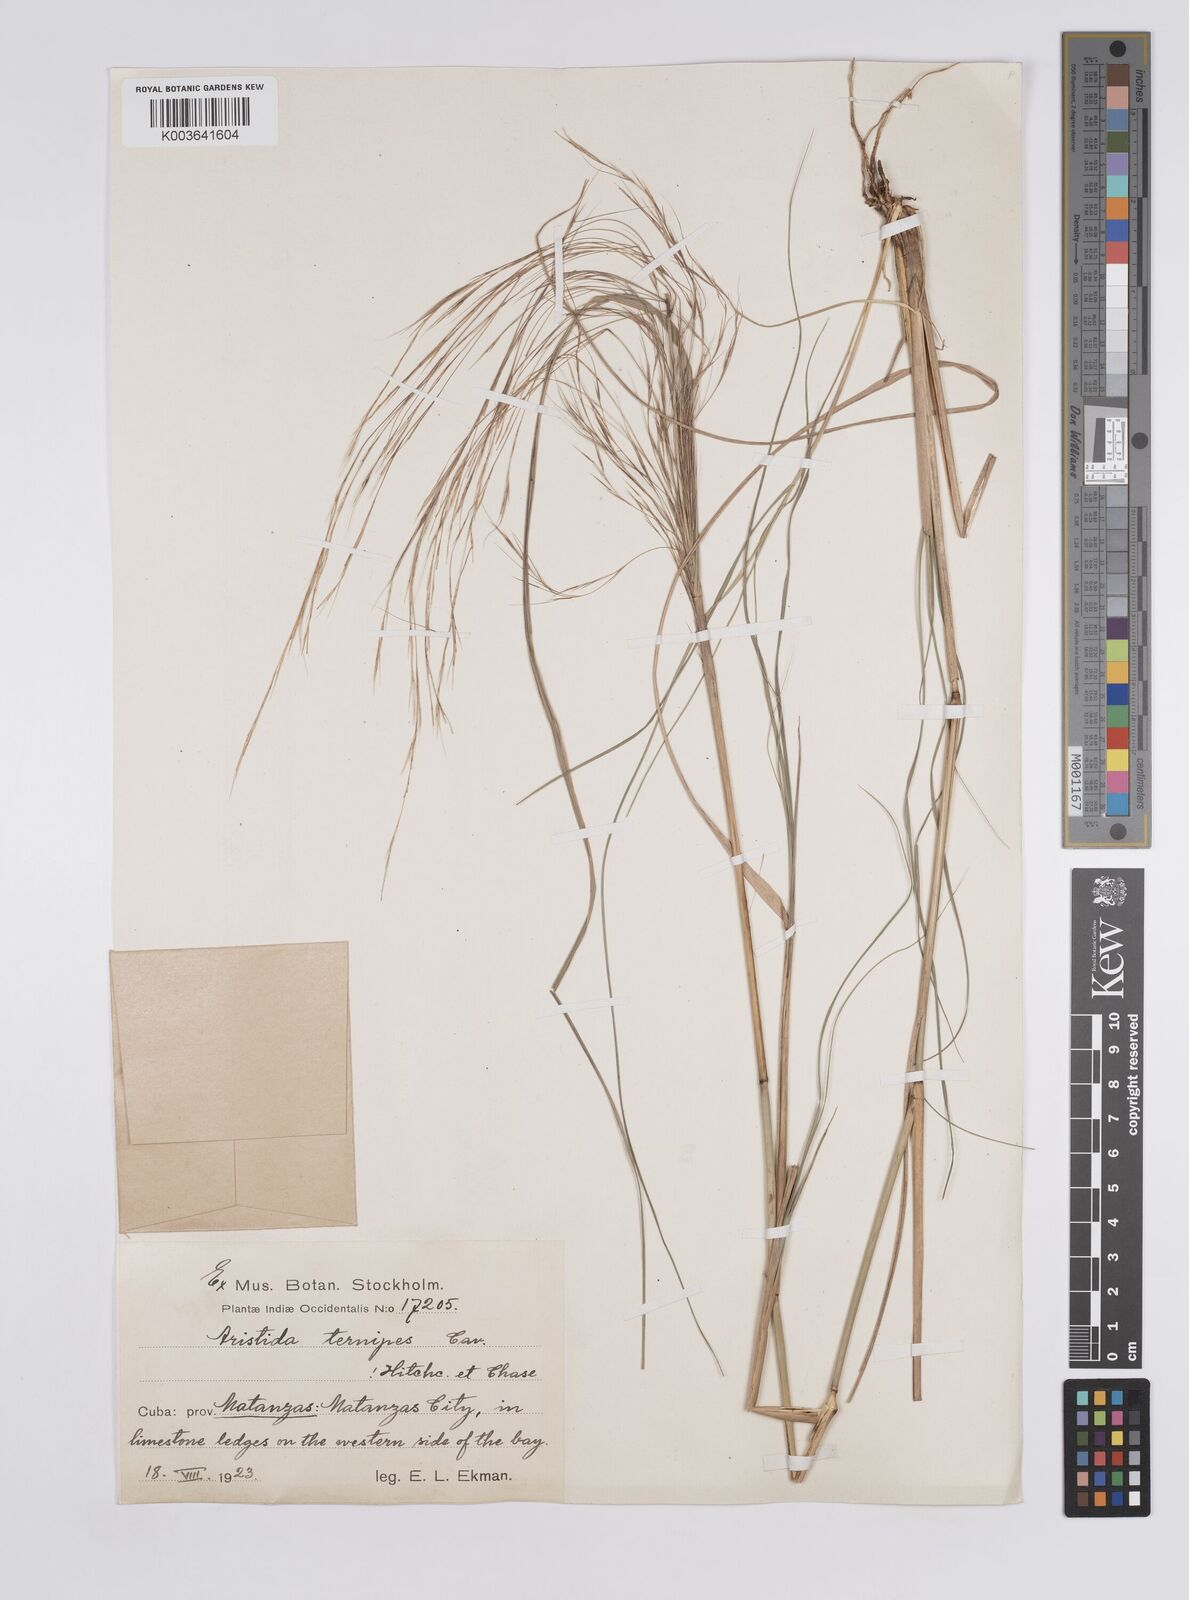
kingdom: Plantae
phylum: Tracheophyta
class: Liliopsida
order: Poales
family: Poaceae
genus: Aristida
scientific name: Aristida ternipes
